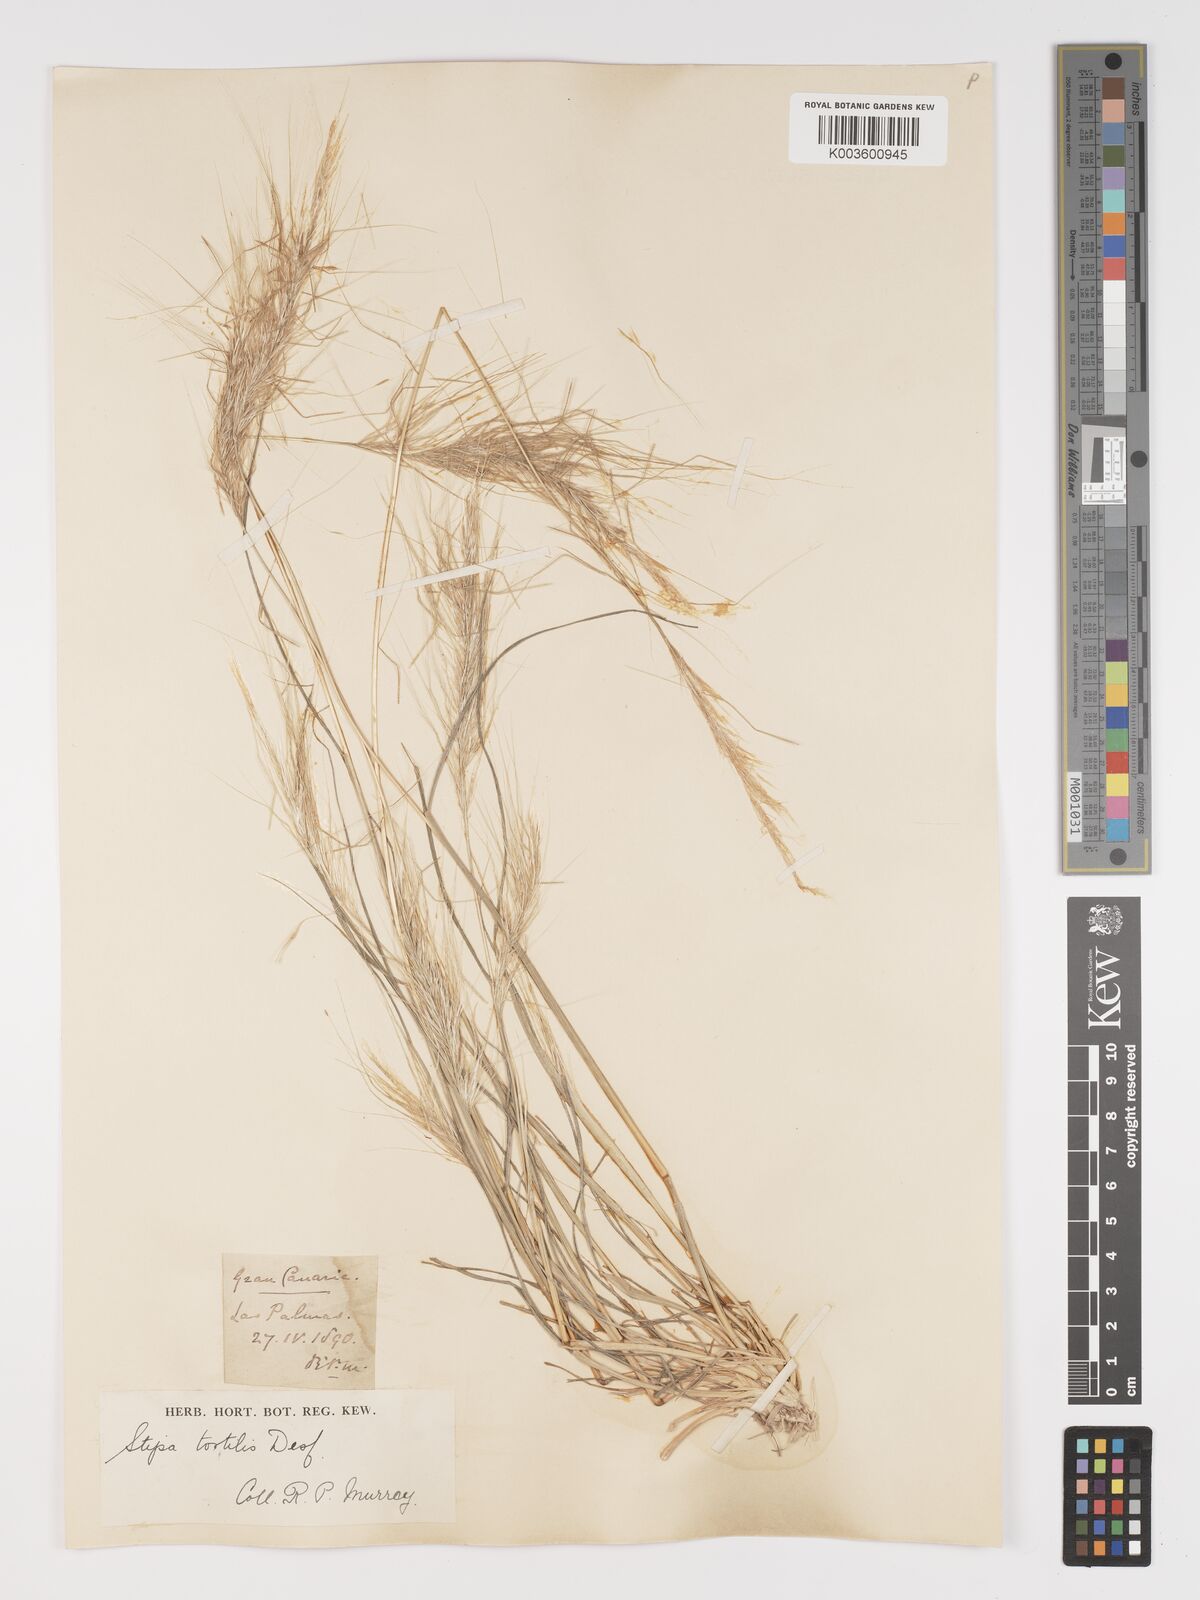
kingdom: Plantae
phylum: Tracheophyta
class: Liliopsida
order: Poales
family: Poaceae
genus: Stipa
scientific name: Stipa dregeana
